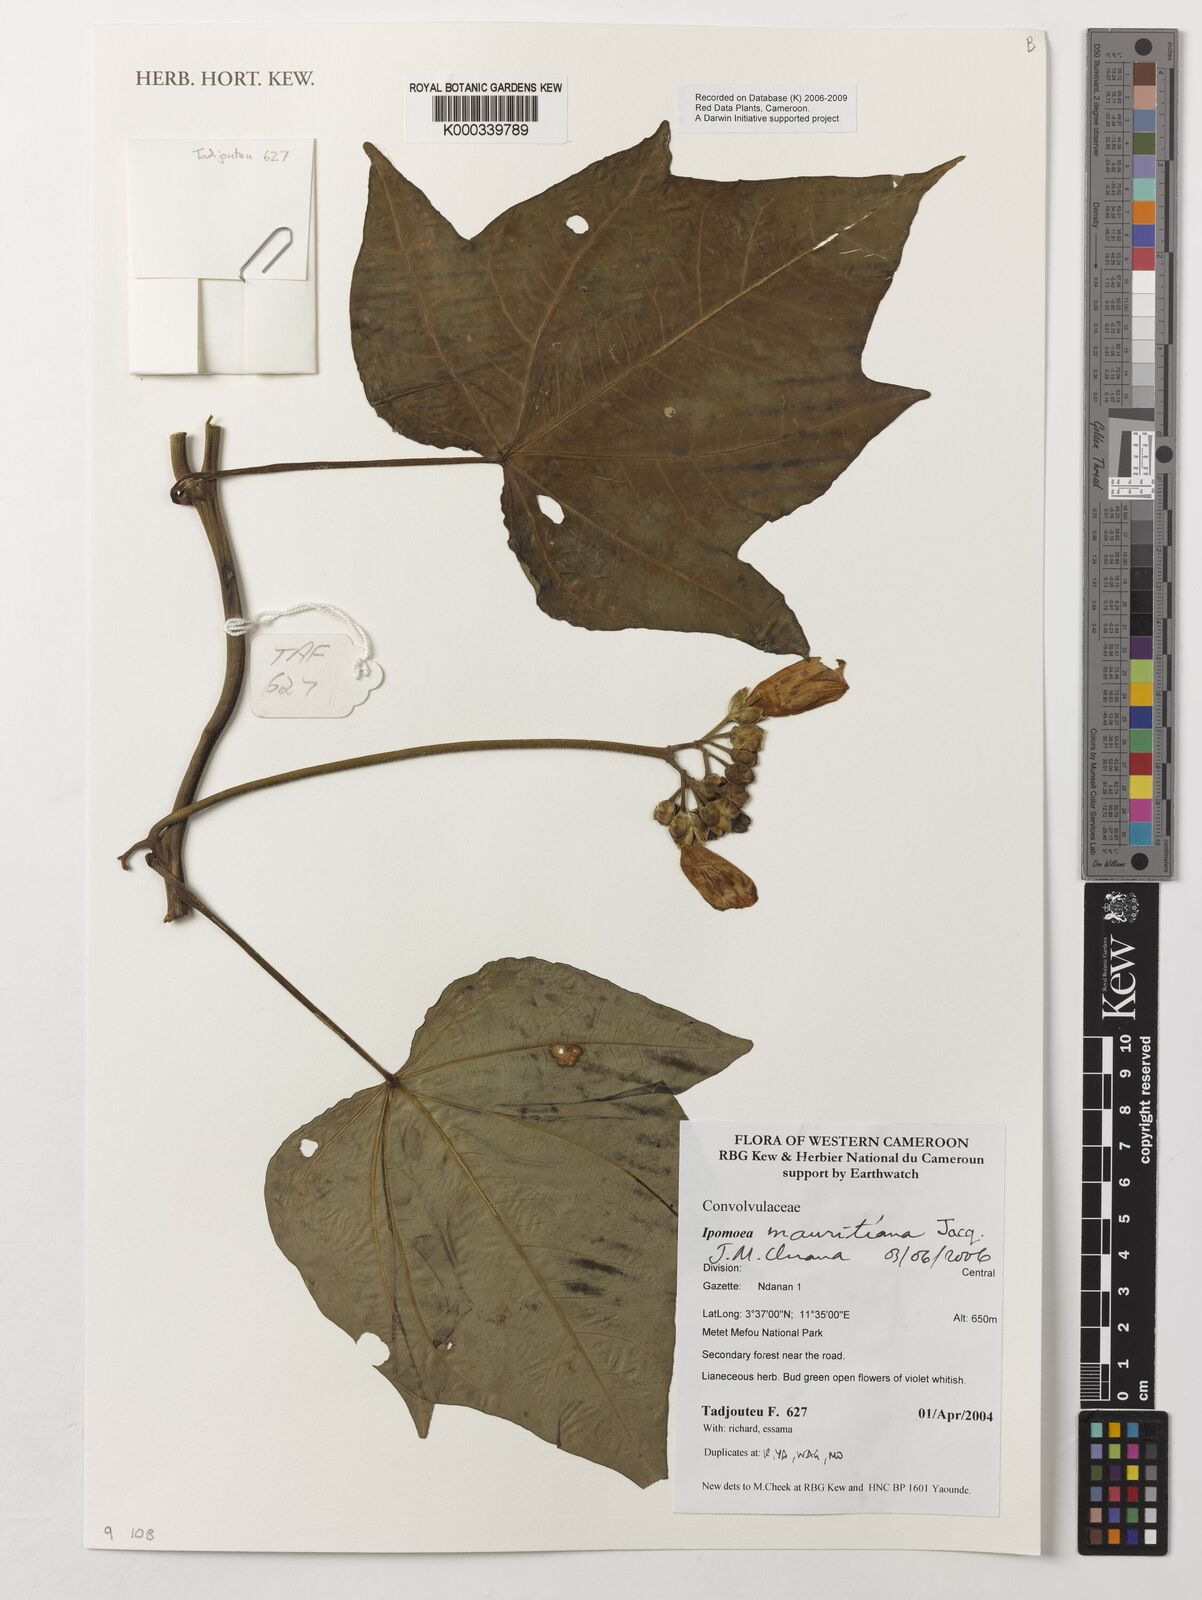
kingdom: Plantae
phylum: Tracheophyta
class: Magnoliopsida
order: Solanales
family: Convolvulaceae
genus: Ipomoea
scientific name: Ipomoea mauritiana
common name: Mauritanian convolvulus
